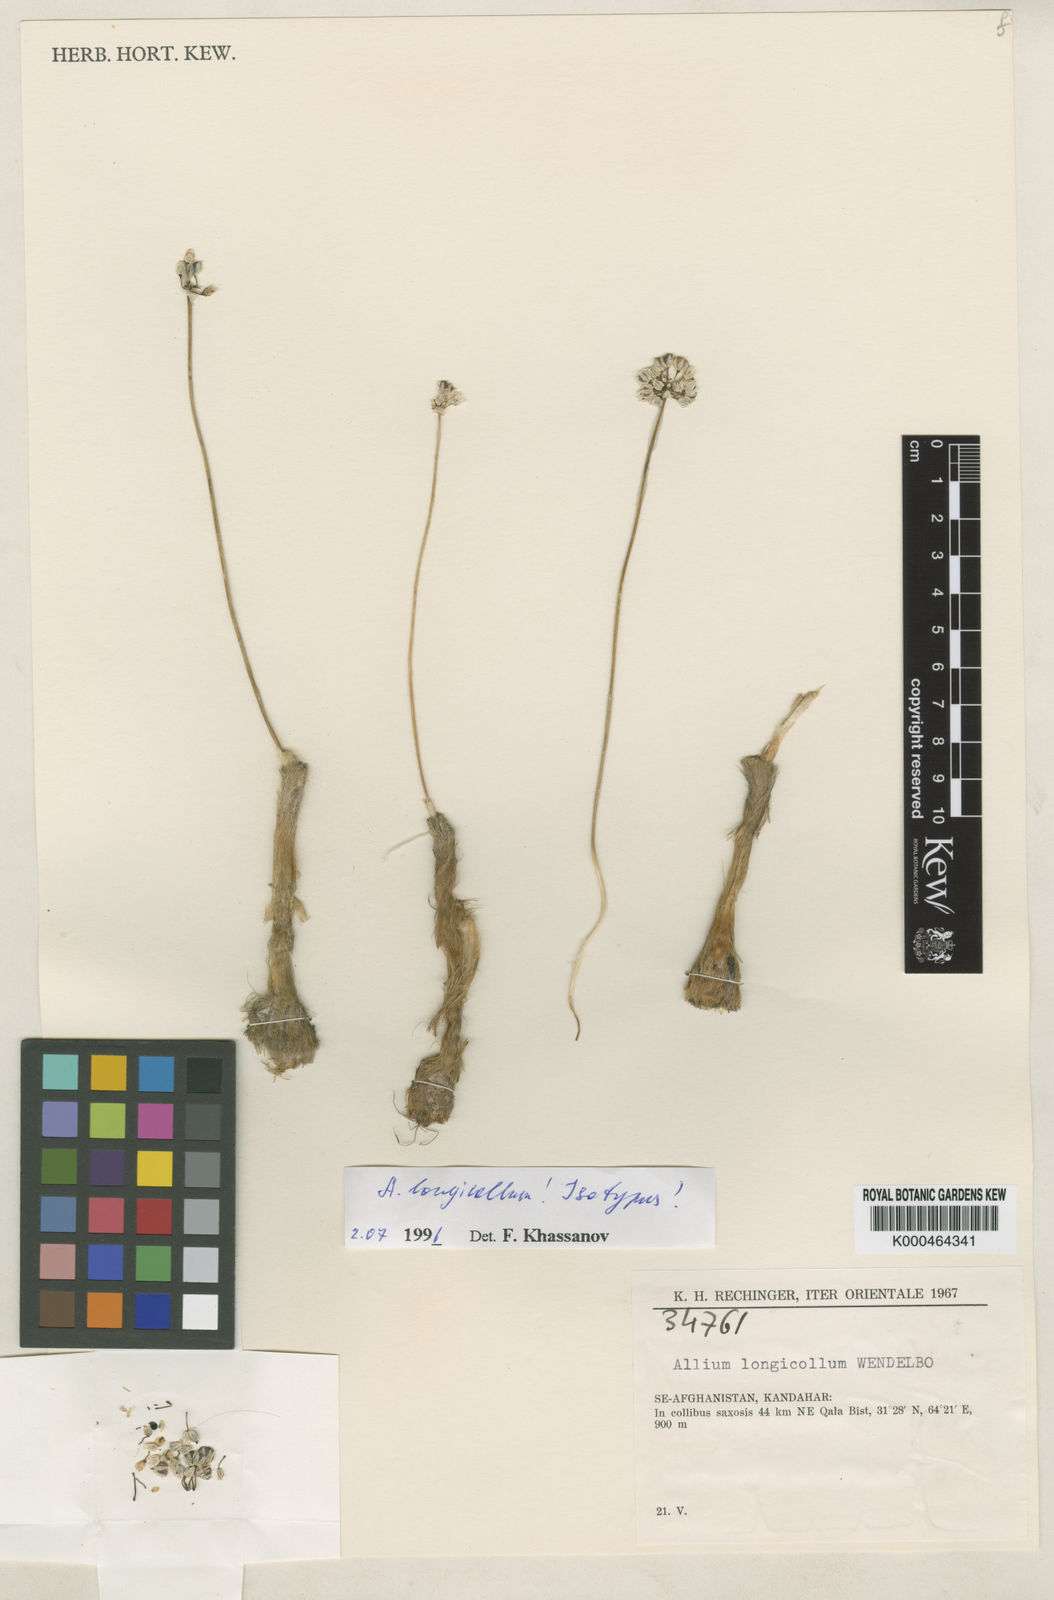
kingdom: Plantae
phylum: Tracheophyta
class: Liliopsida
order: Asparagales
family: Amaryllidaceae
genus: Allium
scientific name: Allium longicollum
